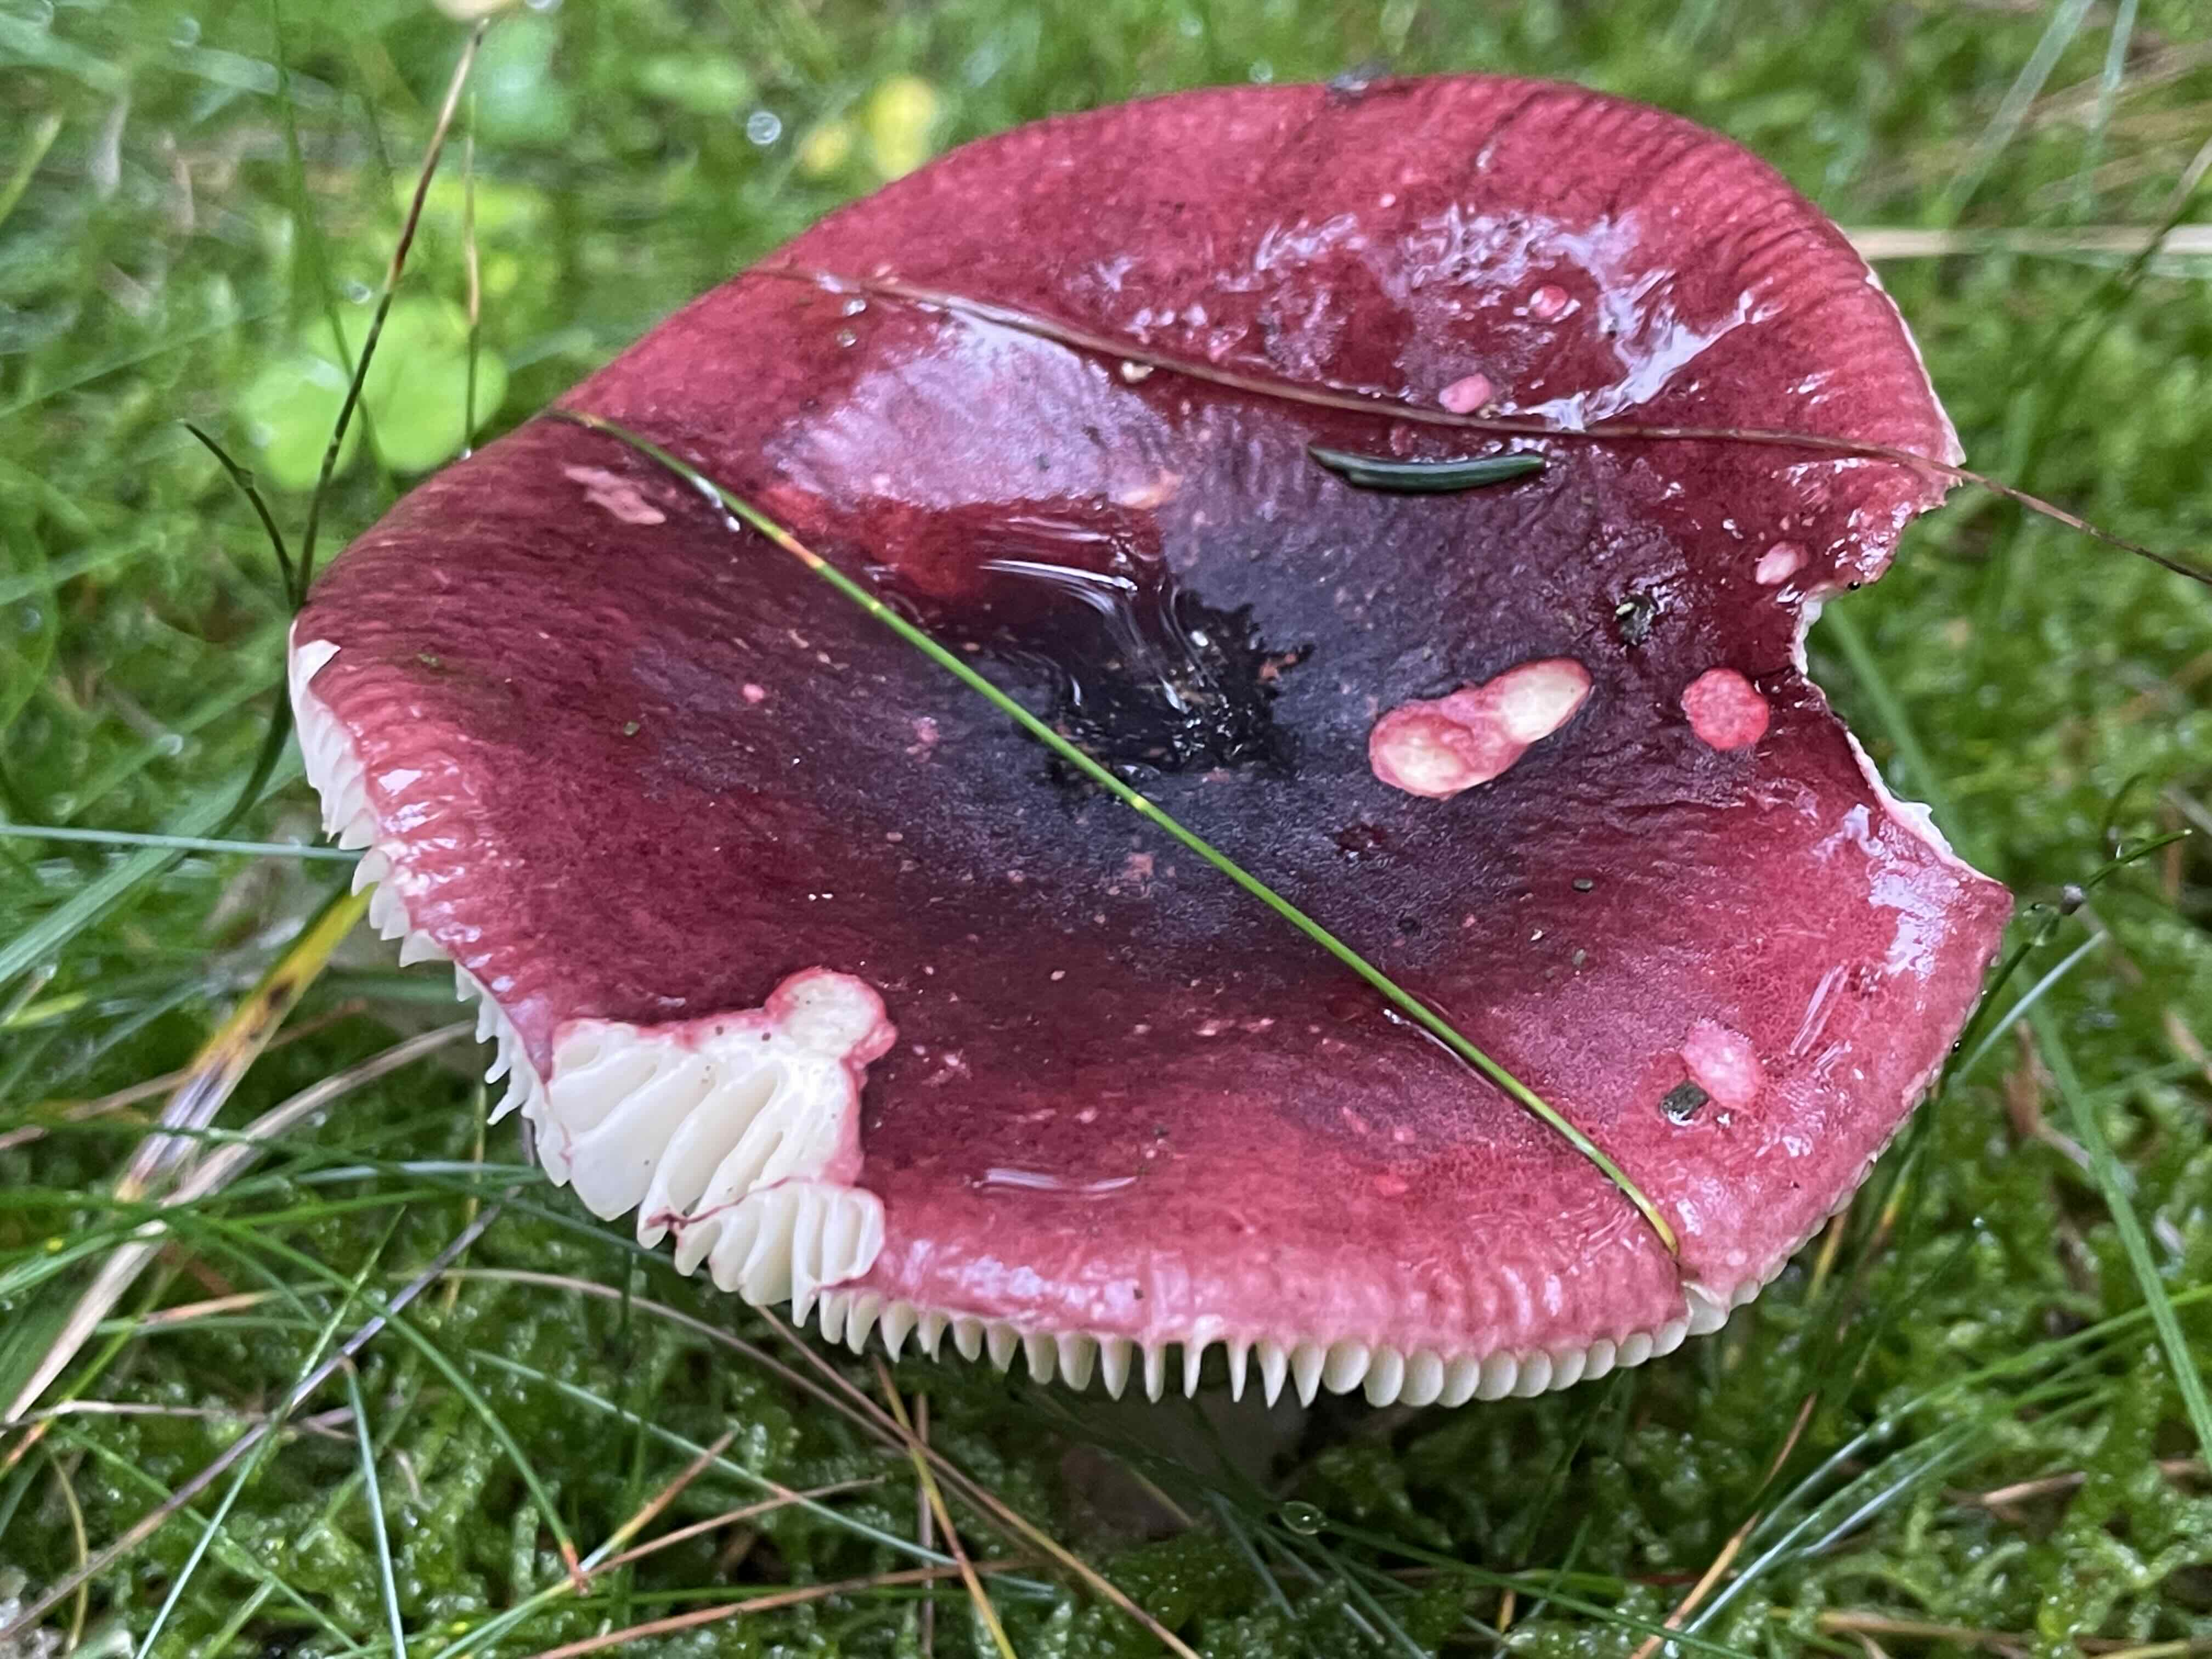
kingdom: Fungi
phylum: Basidiomycota
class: Agaricomycetes
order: Russulales
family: Russulaceae
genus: Russula
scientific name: Russula xerampelina
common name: hummer-skørhat
